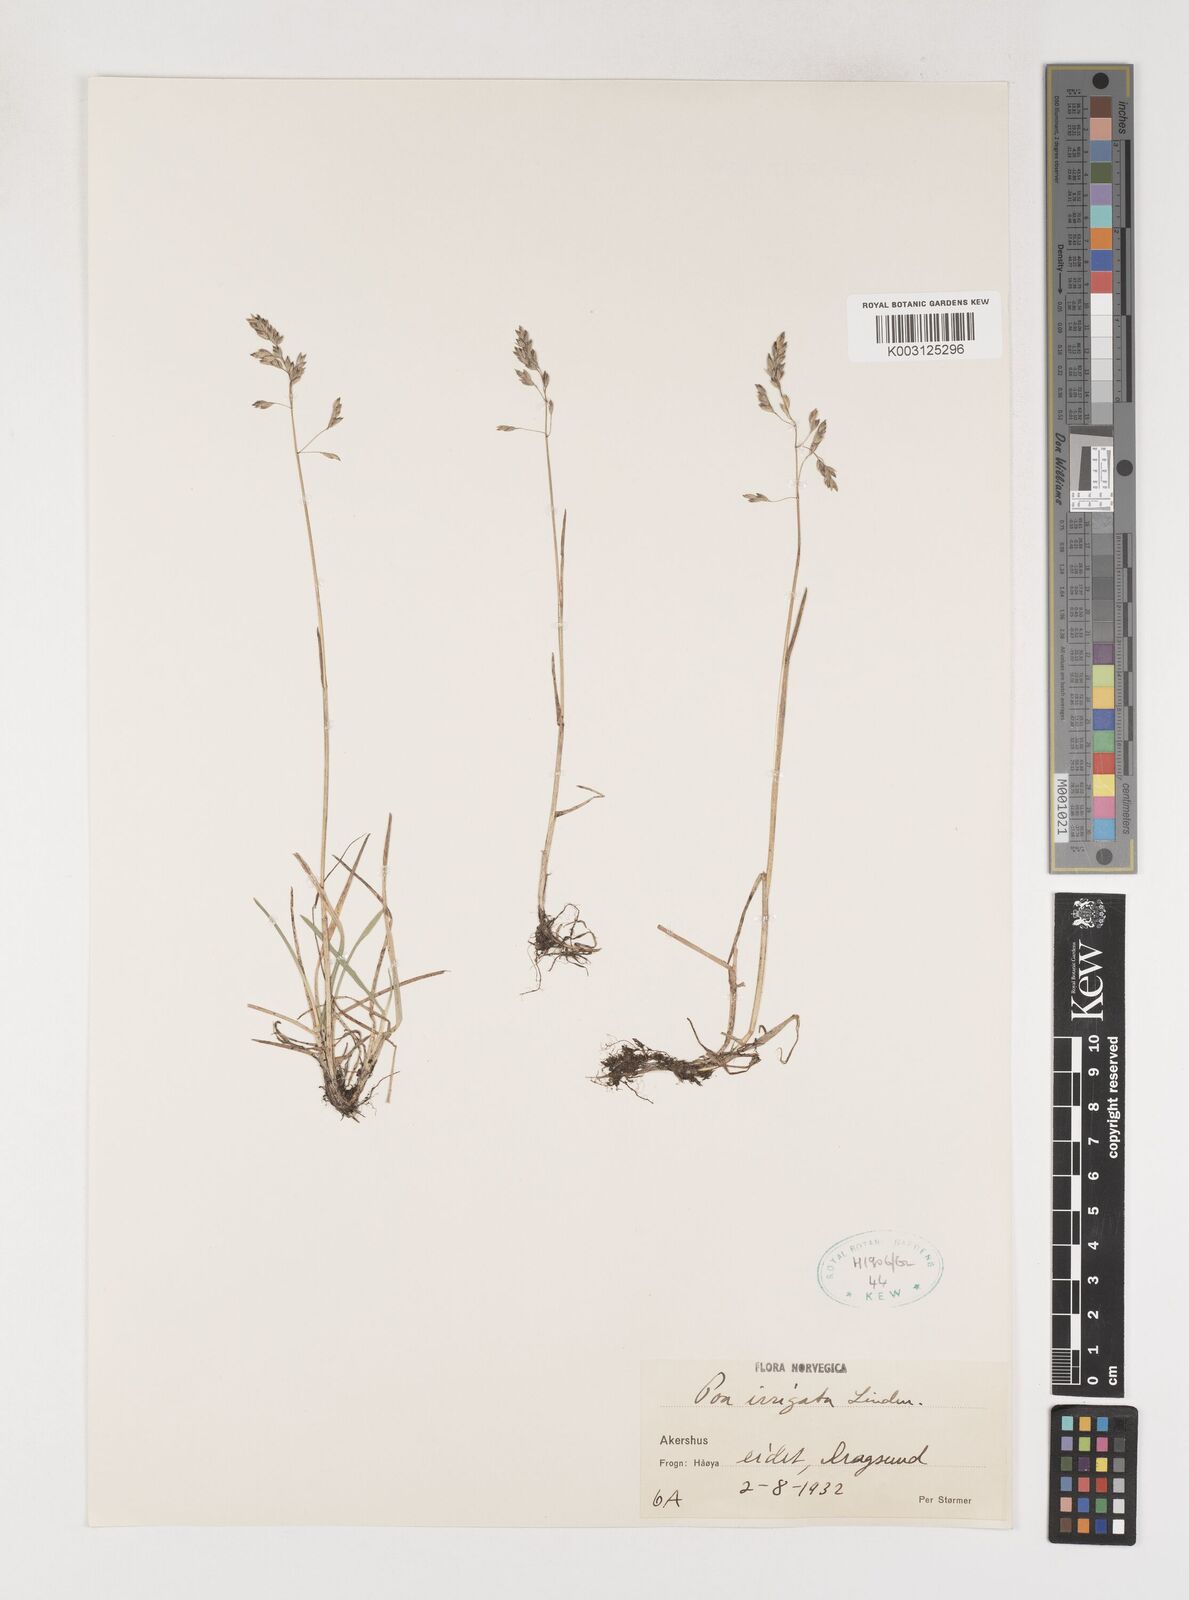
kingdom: Plantae
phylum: Tracheophyta
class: Liliopsida
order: Poales
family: Poaceae
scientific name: Poaceae
